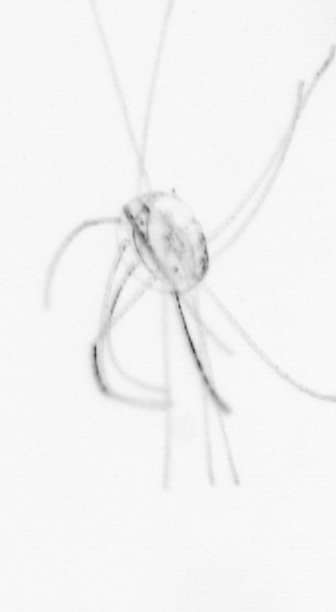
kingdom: Animalia
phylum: Cnidaria
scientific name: Cnidaria
